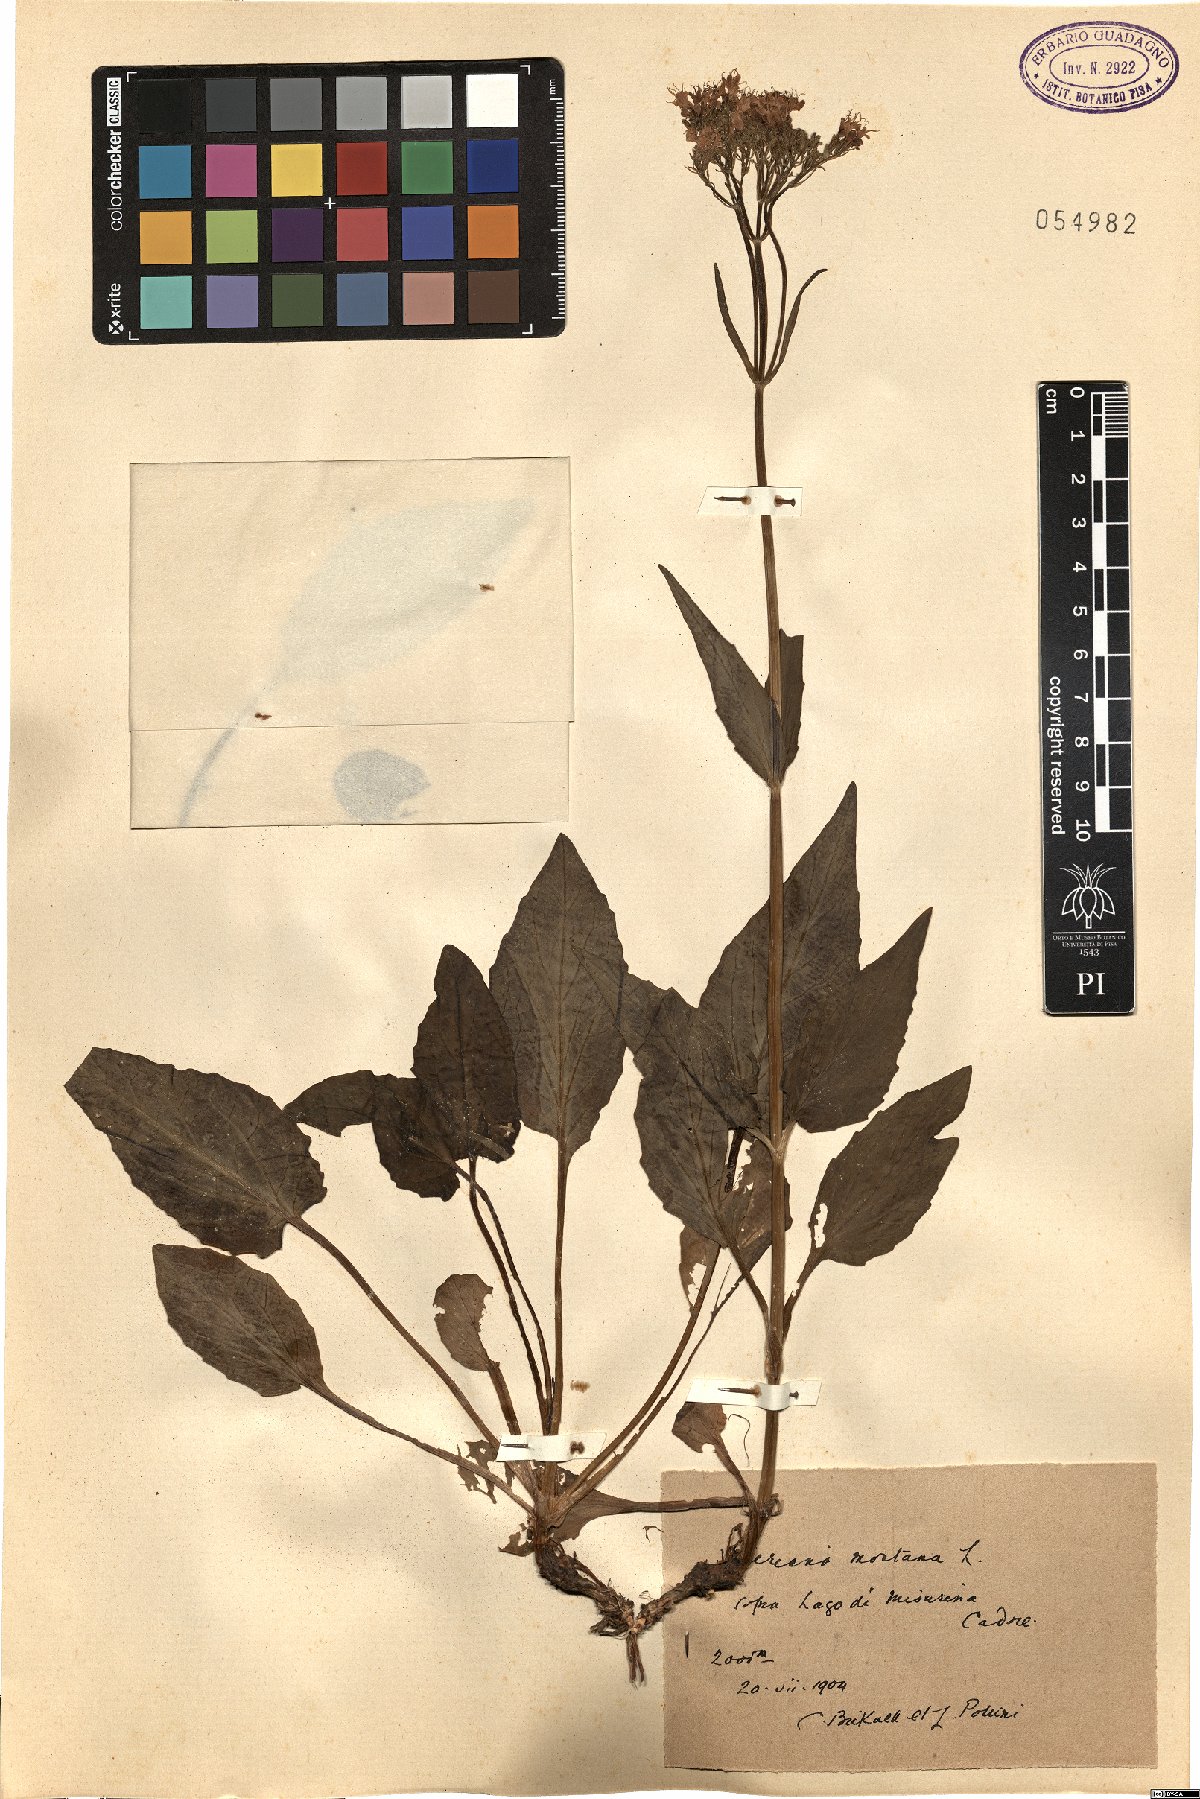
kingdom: Plantae
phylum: Tracheophyta
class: Magnoliopsida
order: Dipsacales
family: Caprifoliaceae
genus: Valeriana
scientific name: Valeriana montana
